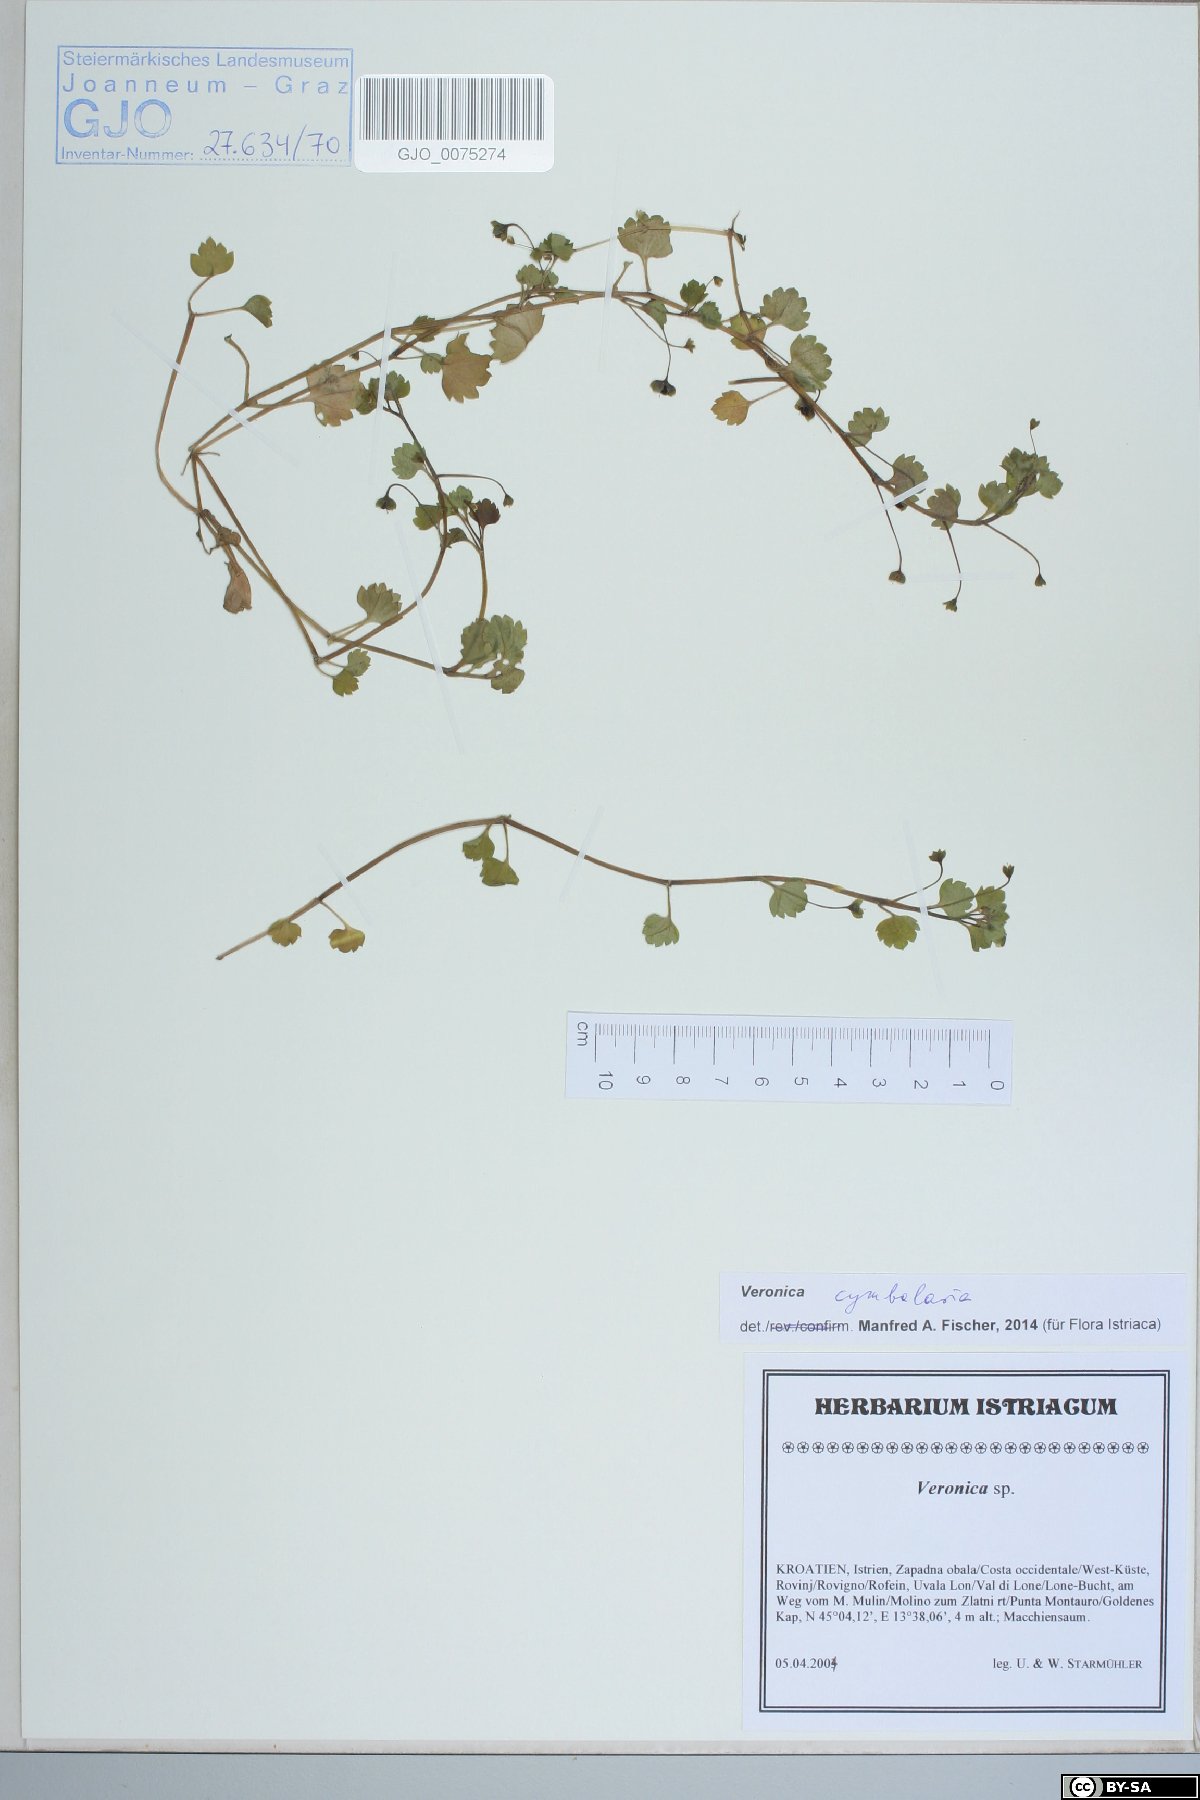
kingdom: Plantae
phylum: Tracheophyta
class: Magnoliopsida
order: Lamiales
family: Plantaginaceae
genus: Veronica
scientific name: Veronica cymbalaria
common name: Pale speedwell
